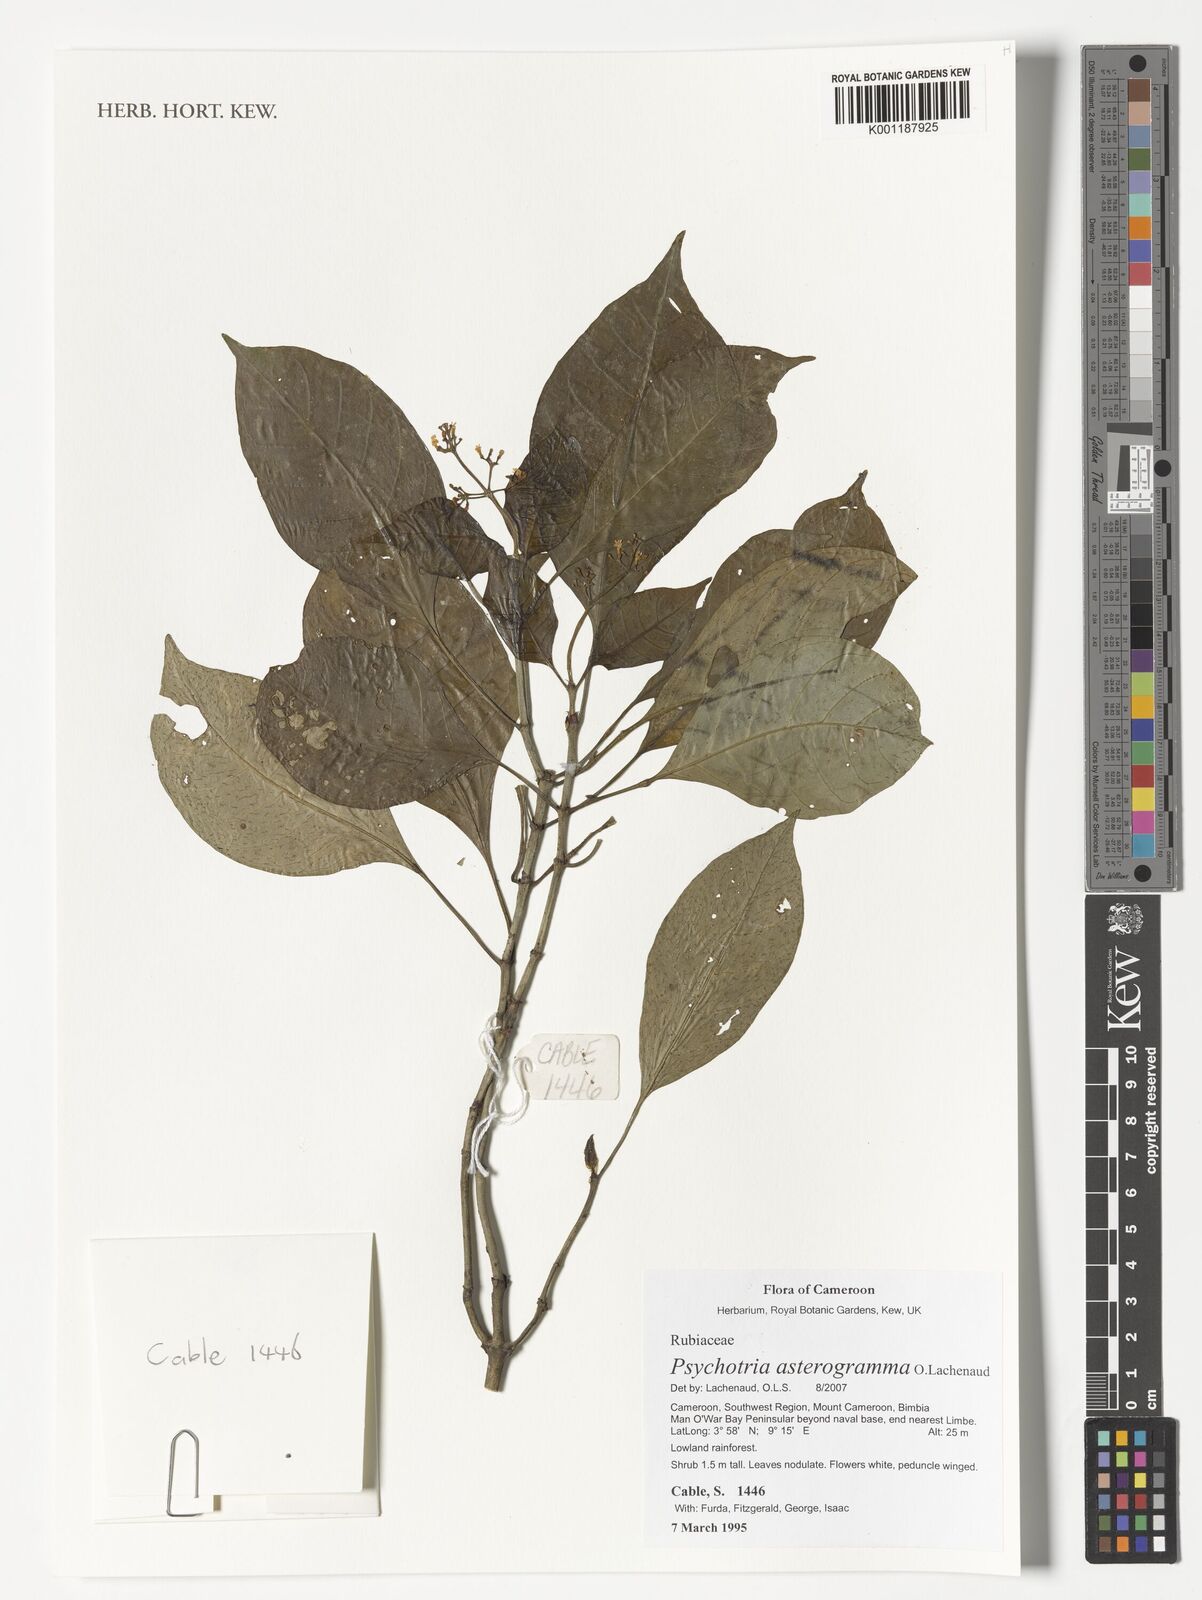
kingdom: Plantae
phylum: Tracheophyta
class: Magnoliopsida
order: Gentianales
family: Rubiaceae
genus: Psychotria
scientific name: Psychotria asterogramma
